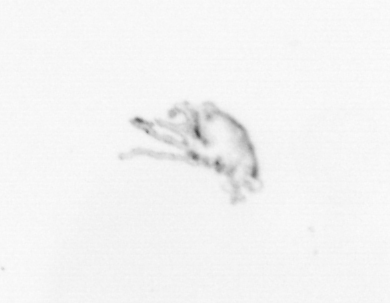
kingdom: Animalia
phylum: Arthropoda
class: Maxillopoda
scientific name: Maxillopoda
